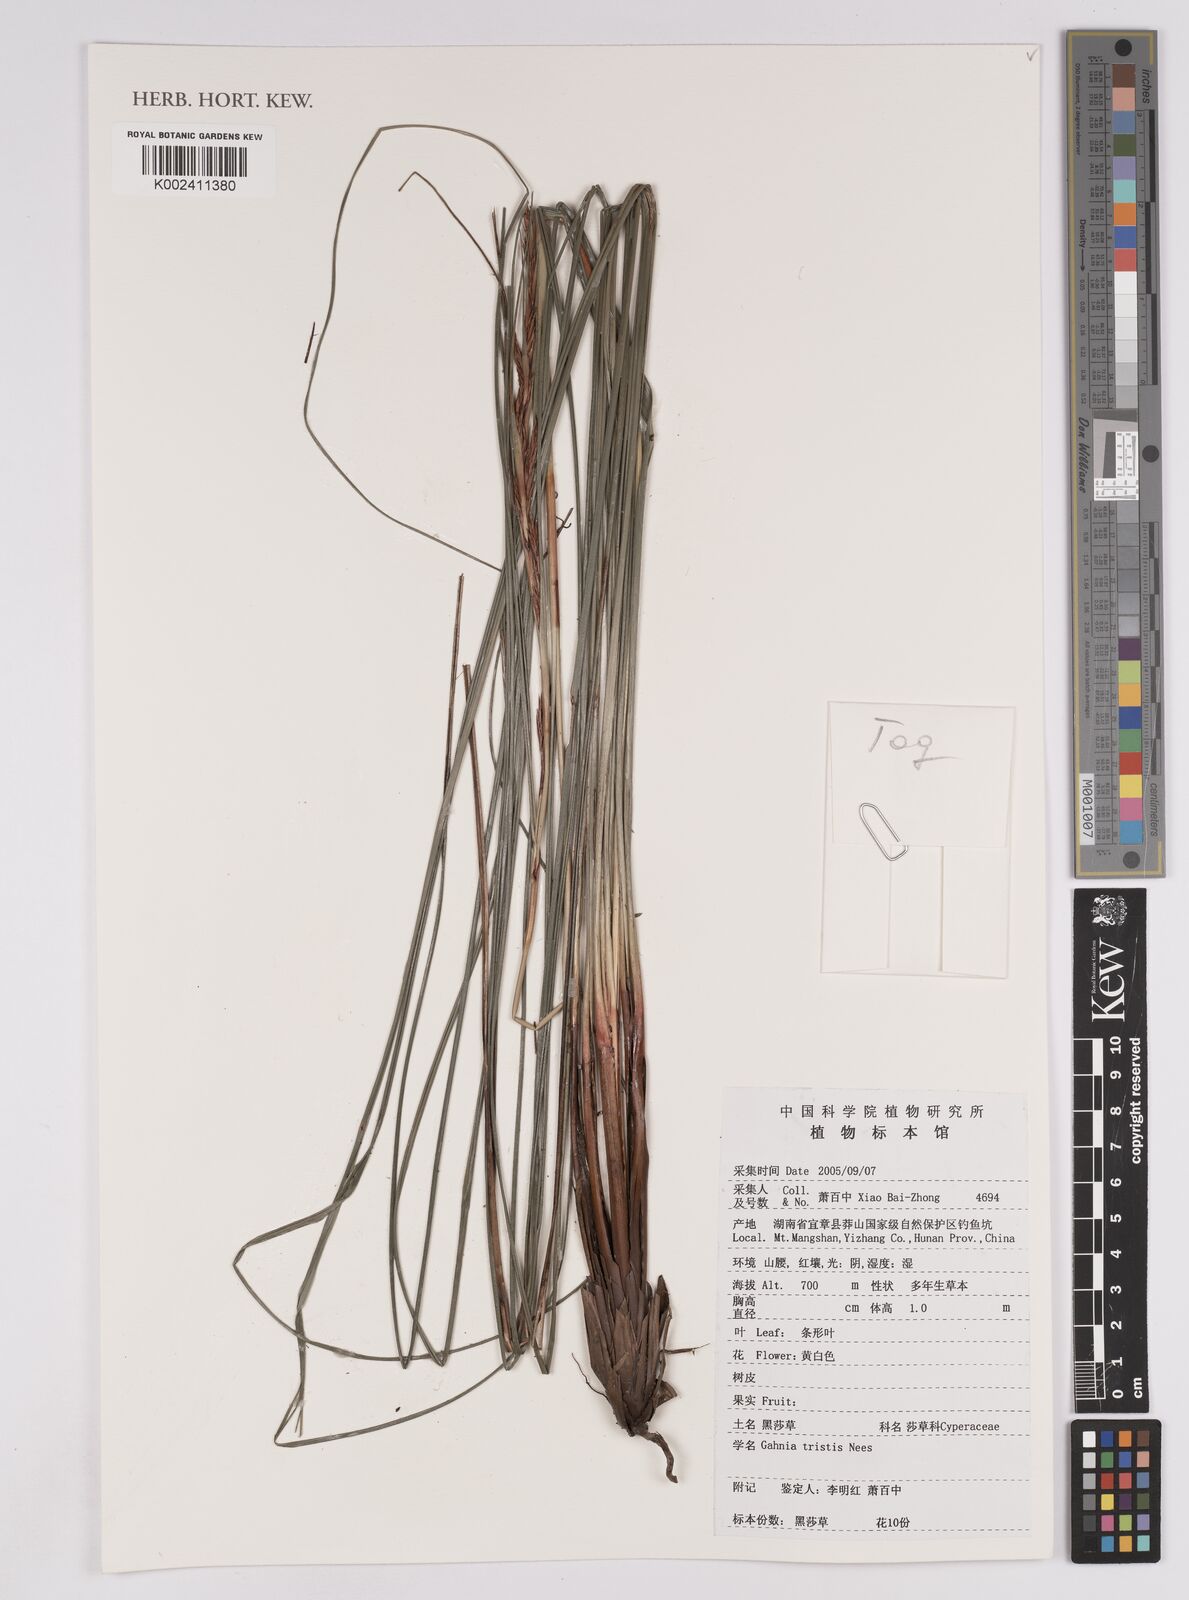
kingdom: Plantae
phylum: Tracheophyta
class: Liliopsida
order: Poales
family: Cyperaceae
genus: Gahnia
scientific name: Gahnia tristis
